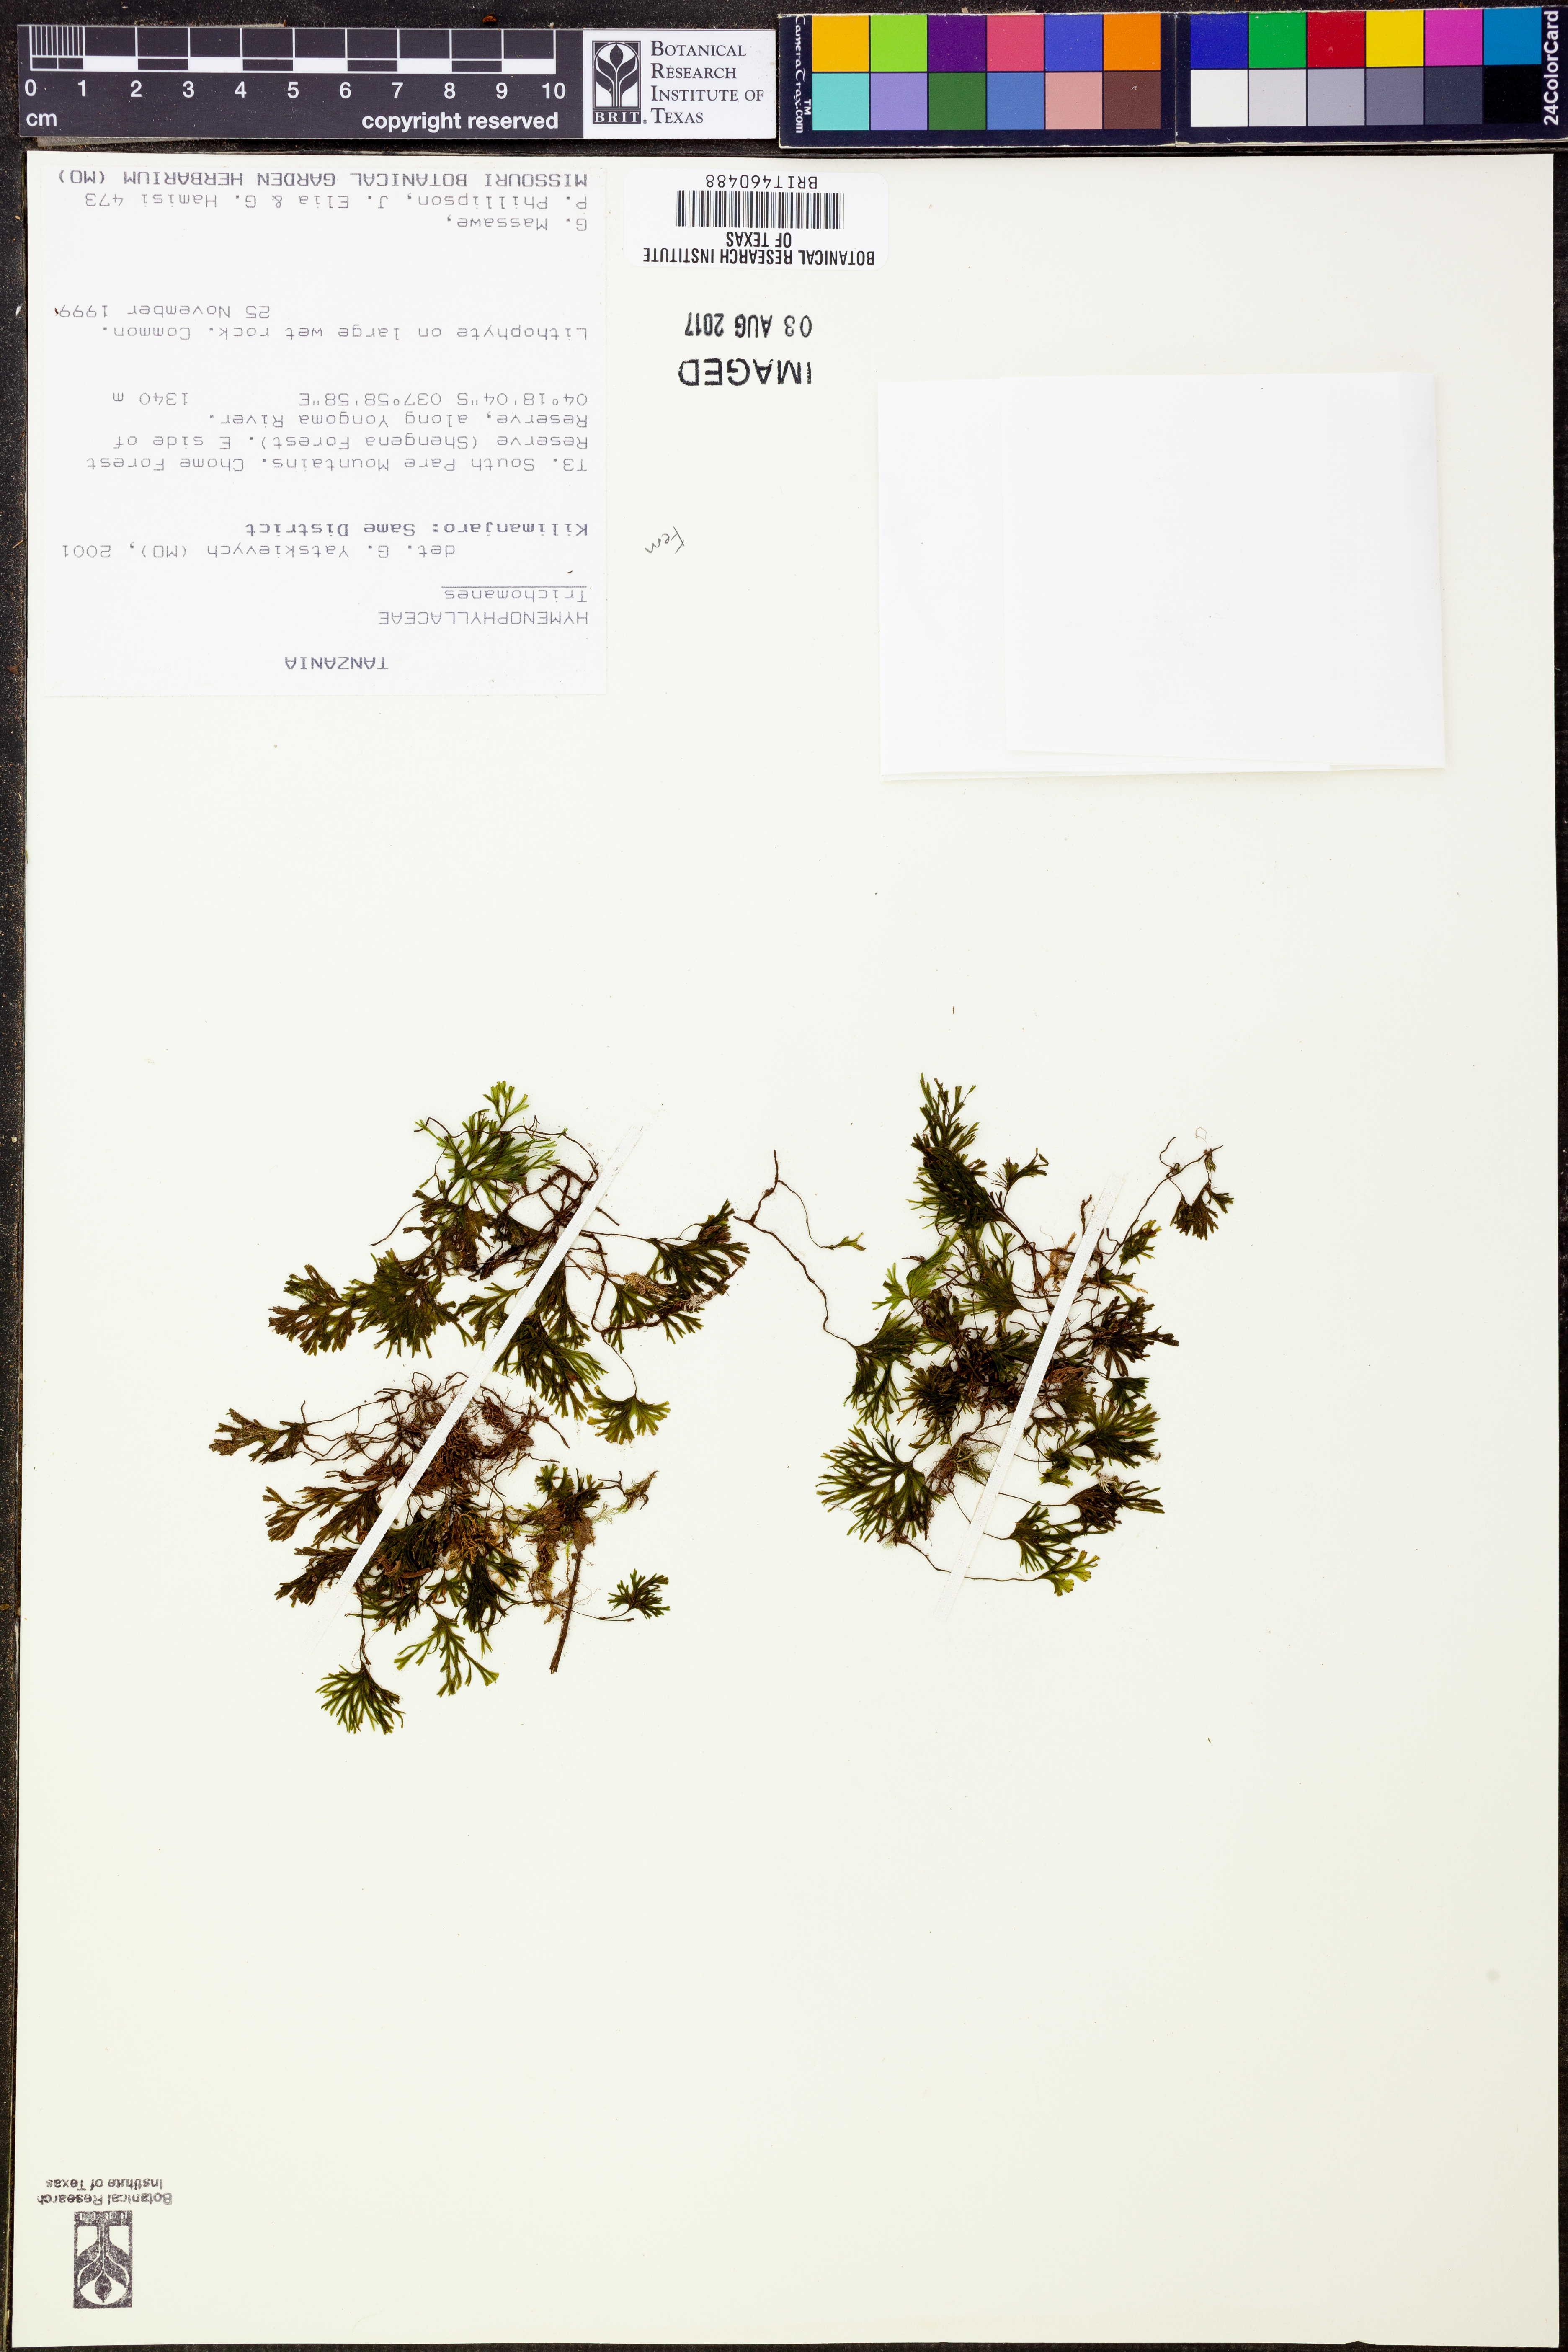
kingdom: Plantae
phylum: Tracheophyta
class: Polypodiopsida
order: Hymenophyllales
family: Hymenophyllaceae
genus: Trichomanes
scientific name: Trichomanes
